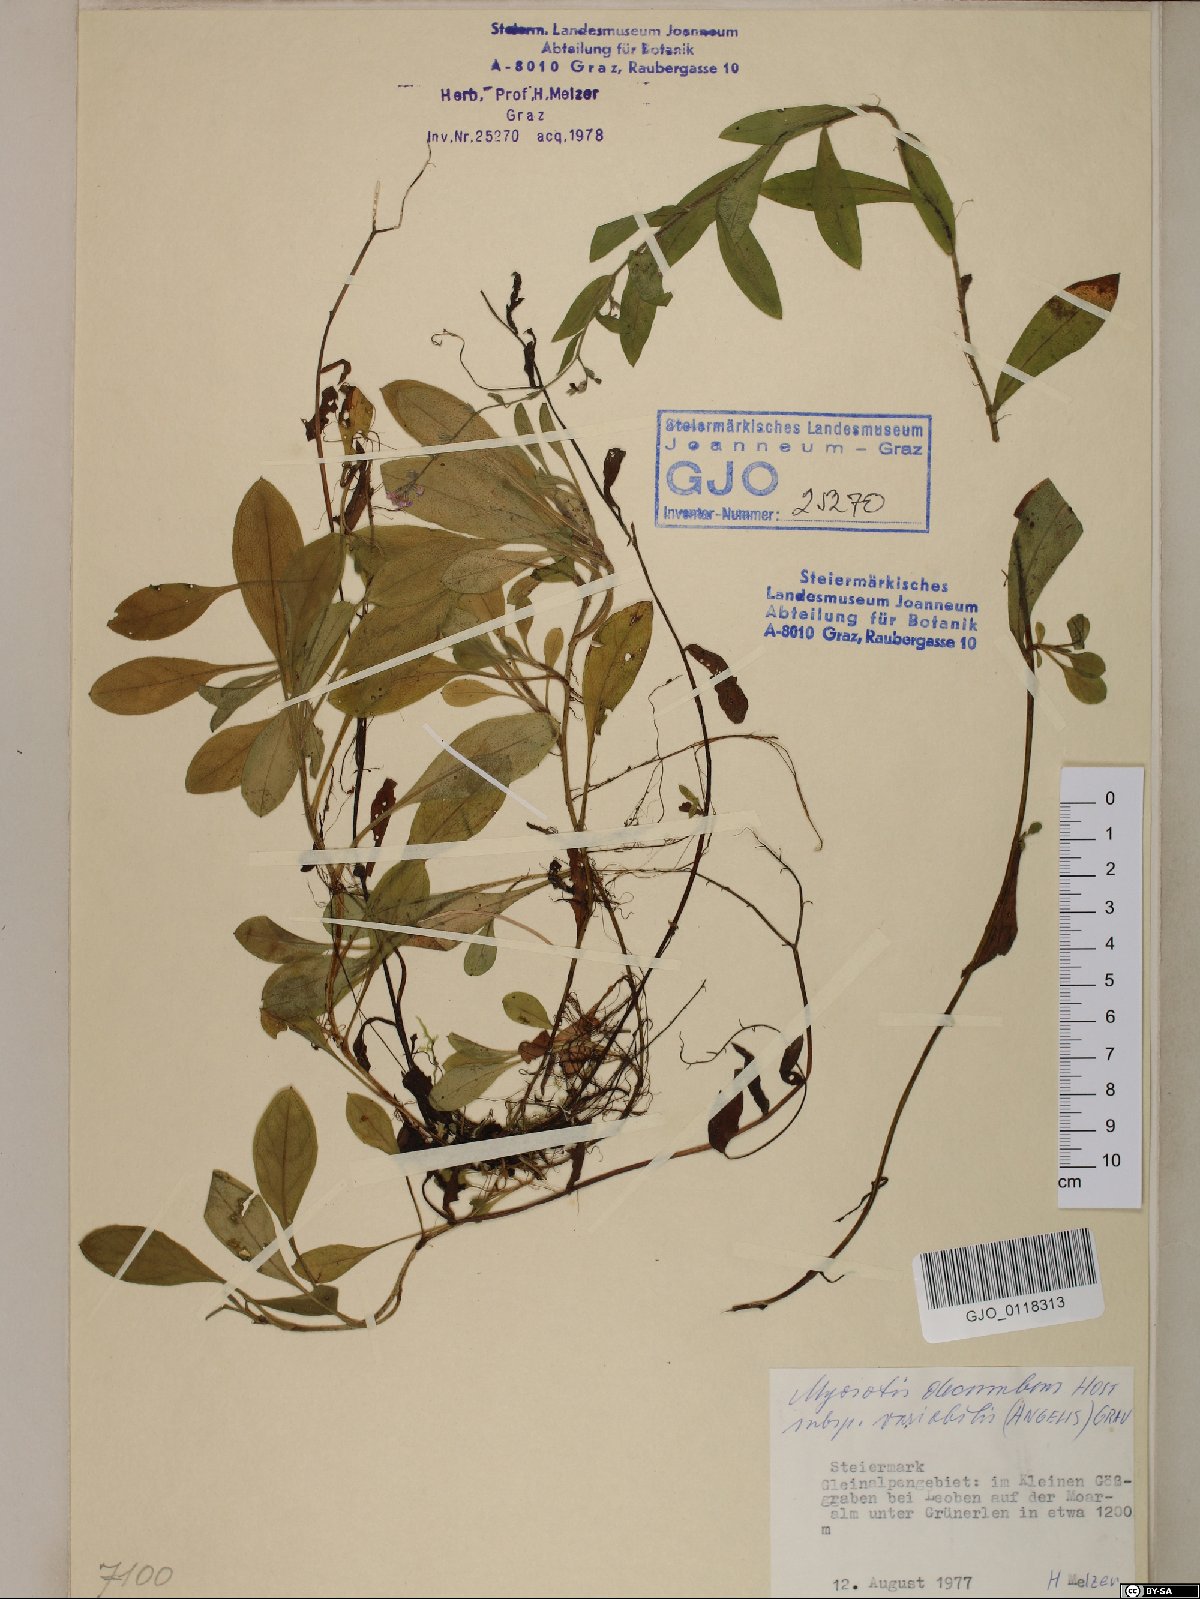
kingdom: Plantae
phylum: Tracheophyta
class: Magnoliopsida
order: Boraginales
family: Boraginaceae
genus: Myosotis
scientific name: Myosotis decumbens
